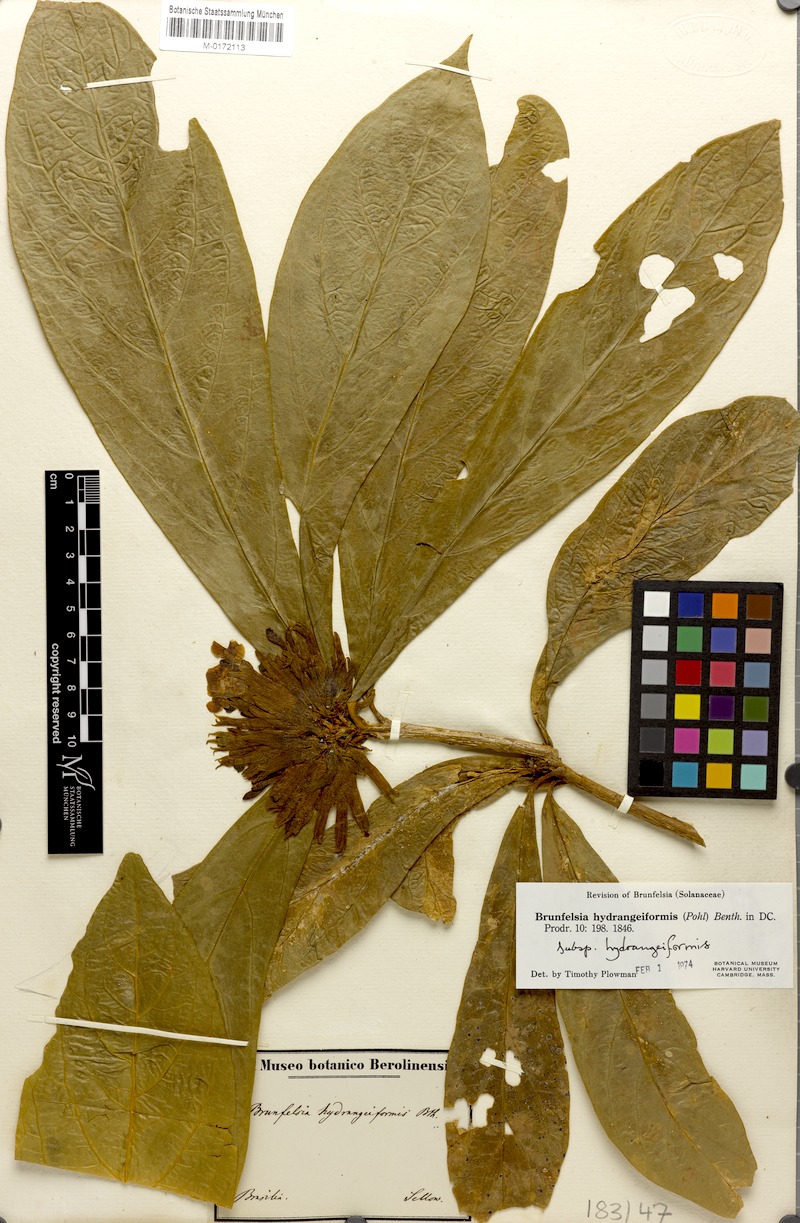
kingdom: Plantae
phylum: Tracheophyta
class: Magnoliopsida
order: Solanales
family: Solanaceae
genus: Brunfelsia
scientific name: Brunfelsia hydrangeiformis
